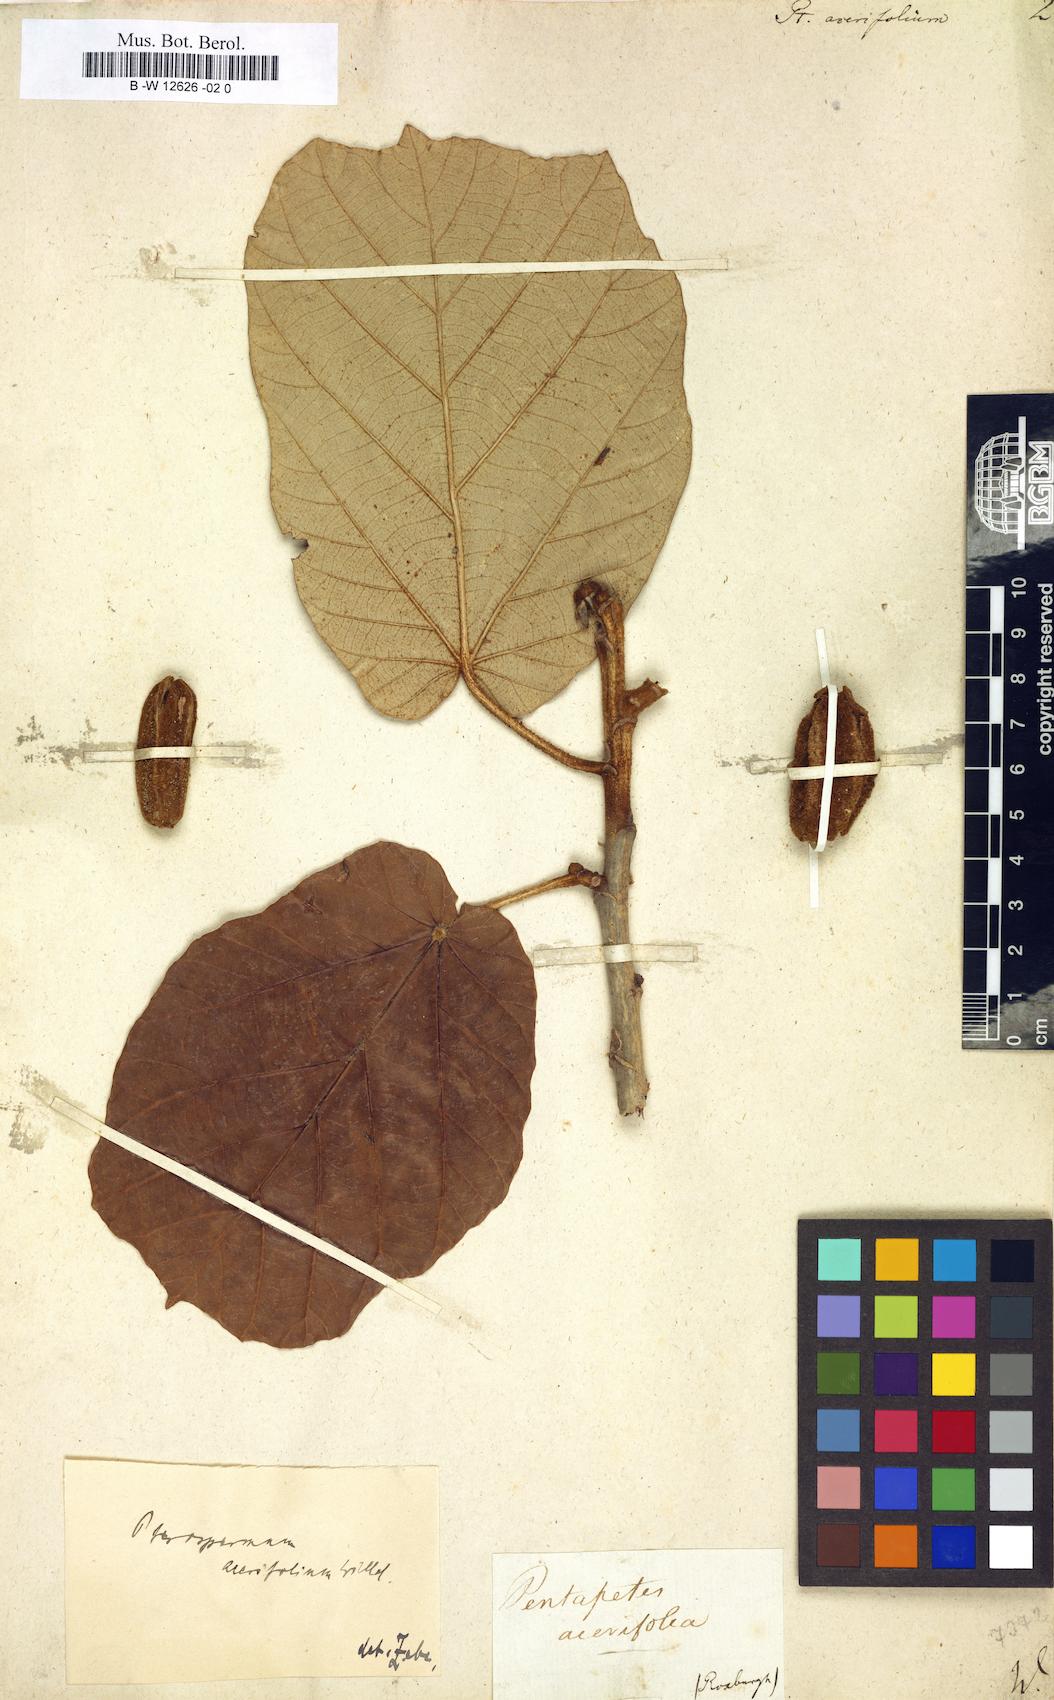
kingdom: Plantae
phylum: Tracheophyta
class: Magnoliopsida
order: Malvales
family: Malvaceae
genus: Pterospermum
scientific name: Pterospermum acerifolium
